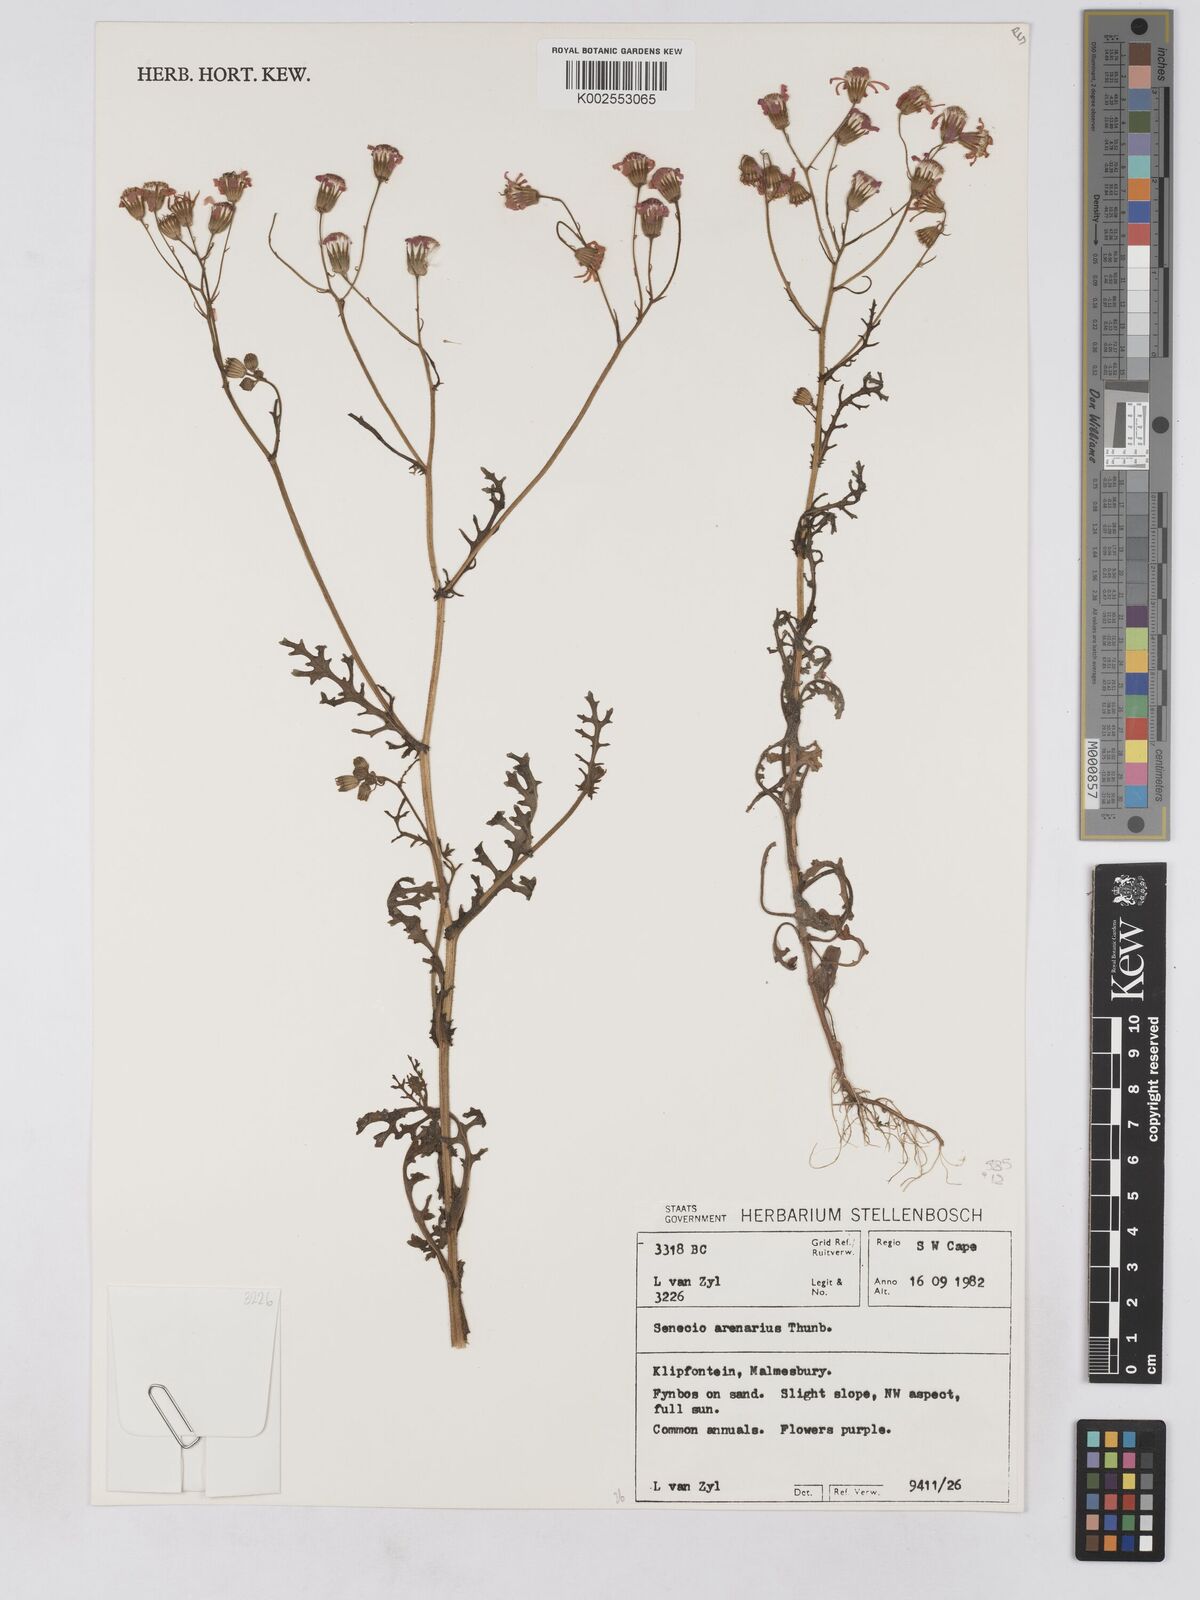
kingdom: Plantae
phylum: Tracheophyta
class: Magnoliopsida
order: Asterales
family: Asteraceae
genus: Senecio
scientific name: Senecio arenarius
